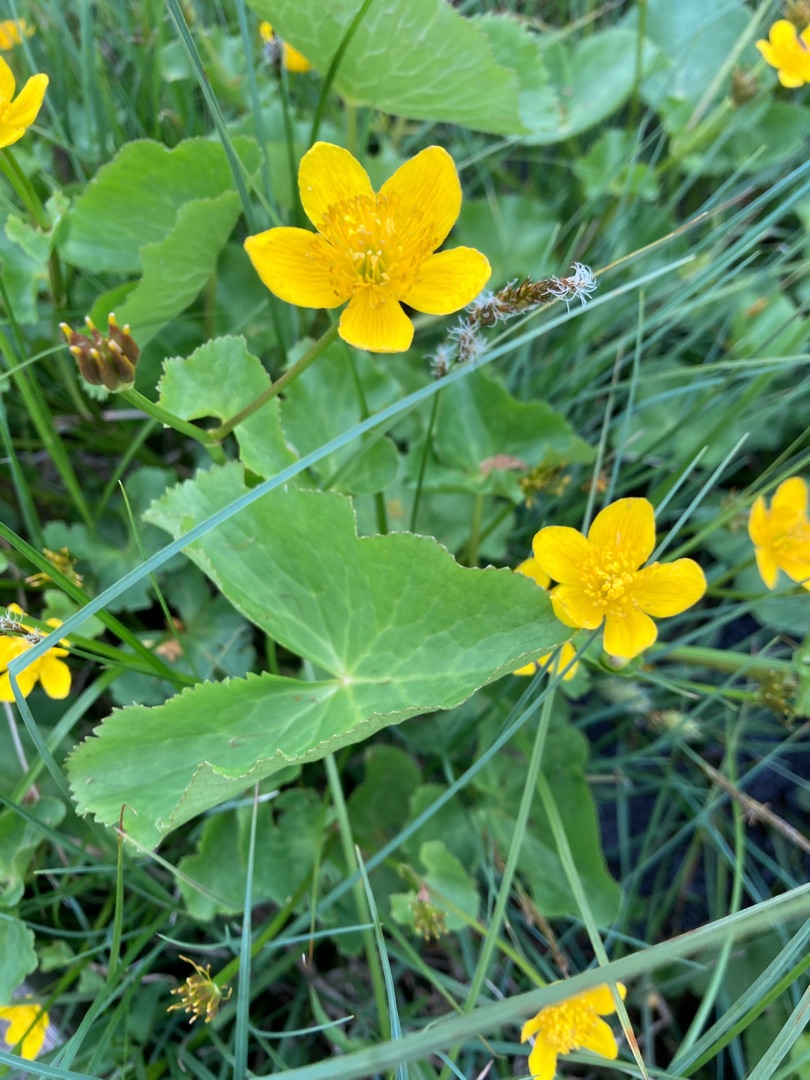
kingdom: Plantae
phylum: Tracheophyta
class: Magnoliopsida
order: Ranunculales
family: Ranunculaceae
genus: Caltha
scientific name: Caltha palustris
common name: Eng-kabbeleje
